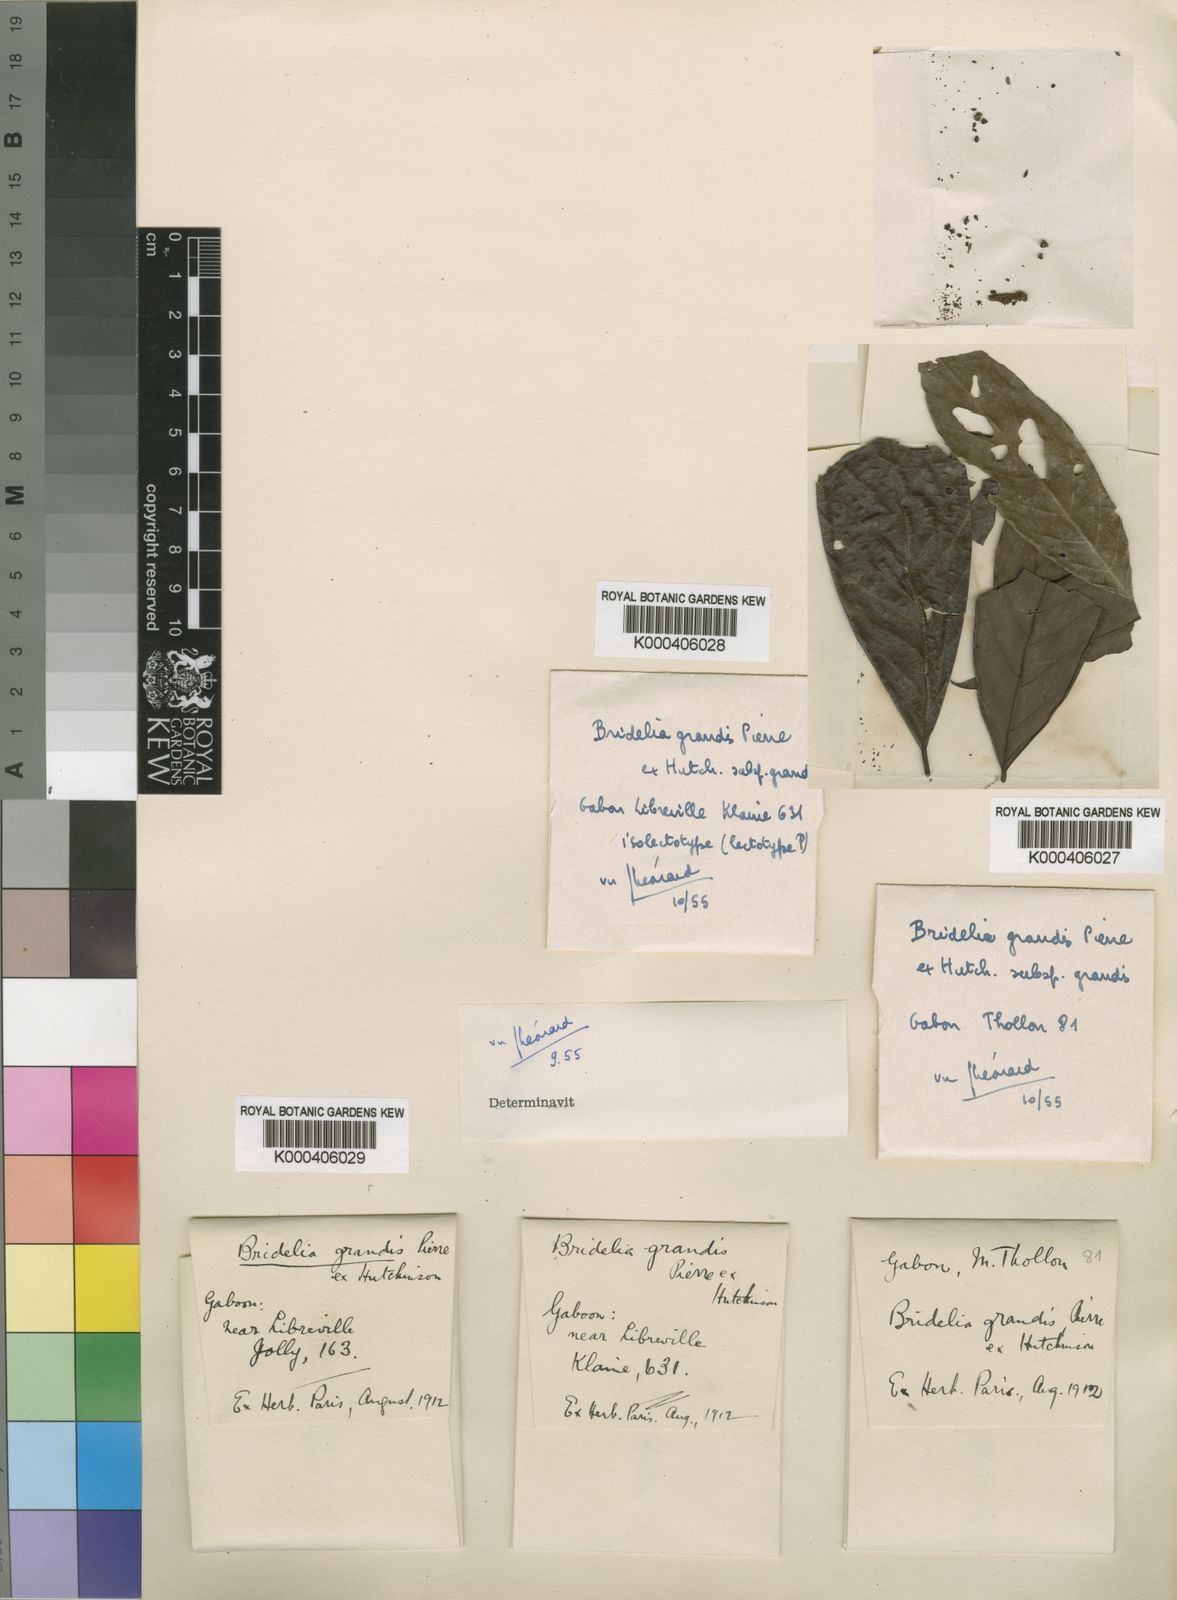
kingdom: Plantae
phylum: Tracheophyta
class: Magnoliopsida
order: Malpighiales
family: Phyllanthaceae
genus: Bridelia
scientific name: Bridelia grandis
